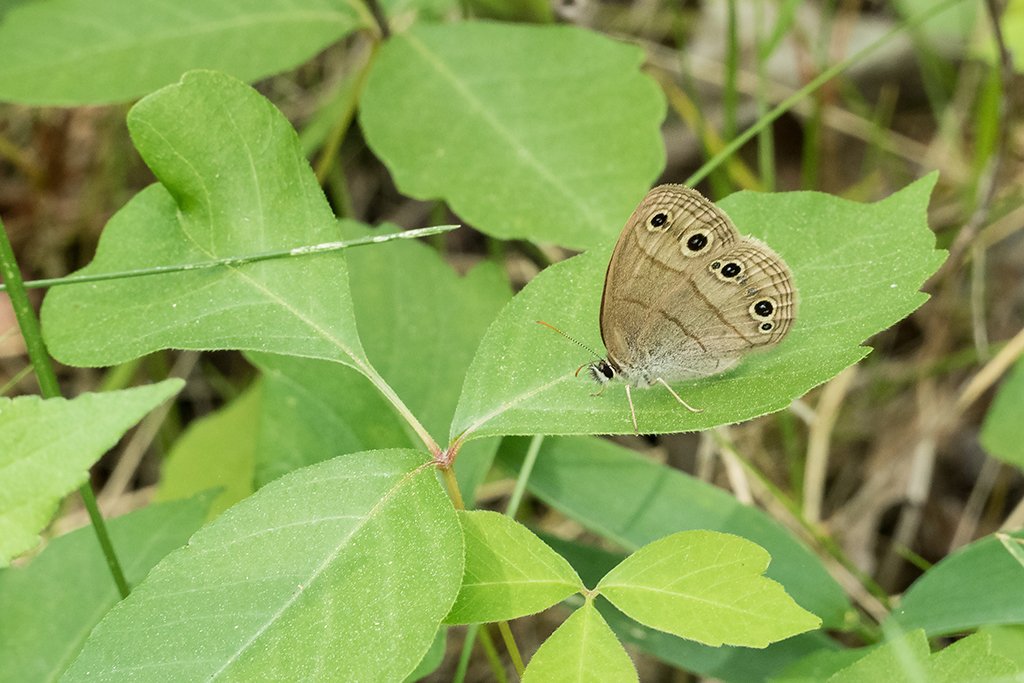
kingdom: Animalia
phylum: Arthropoda
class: Insecta
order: Lepidoptera
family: Nymphalidae
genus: Euptychia
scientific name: Euptychia cymela
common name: Little Wood Satyr
